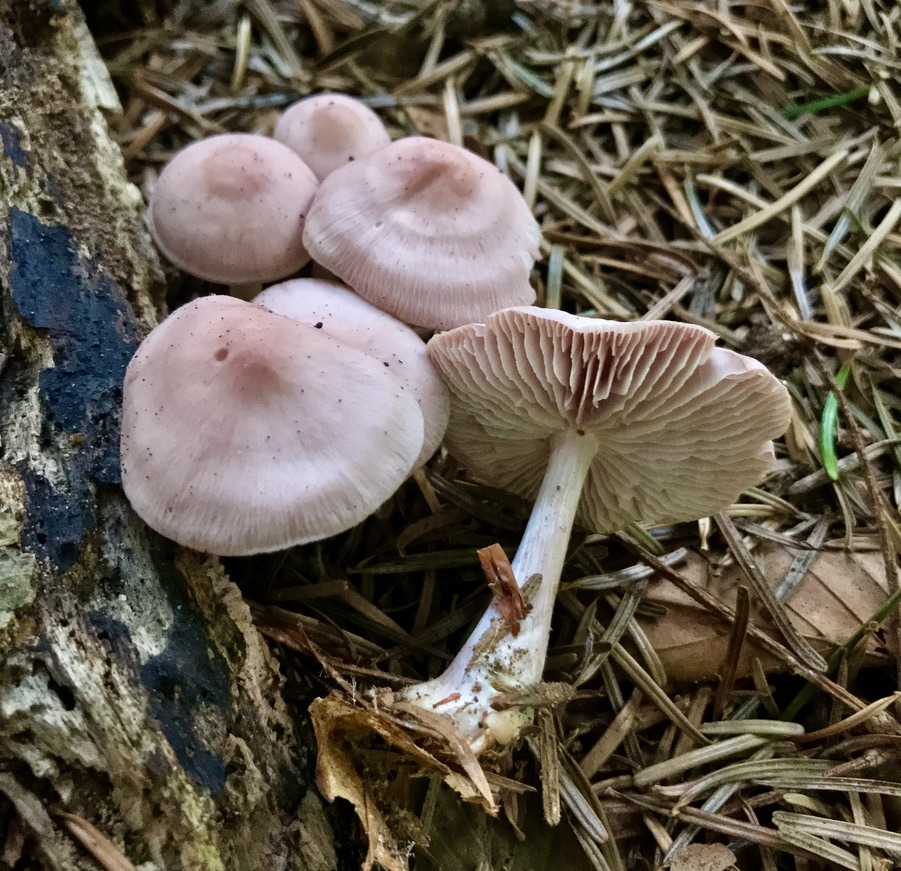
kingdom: Fungi
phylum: Basidiomycota
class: Agaricomycetes
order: Agaricales
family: Omphalotaceae
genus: Collybiopsis
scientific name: Collybiopsis peronata
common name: bestøvlet fladhat
